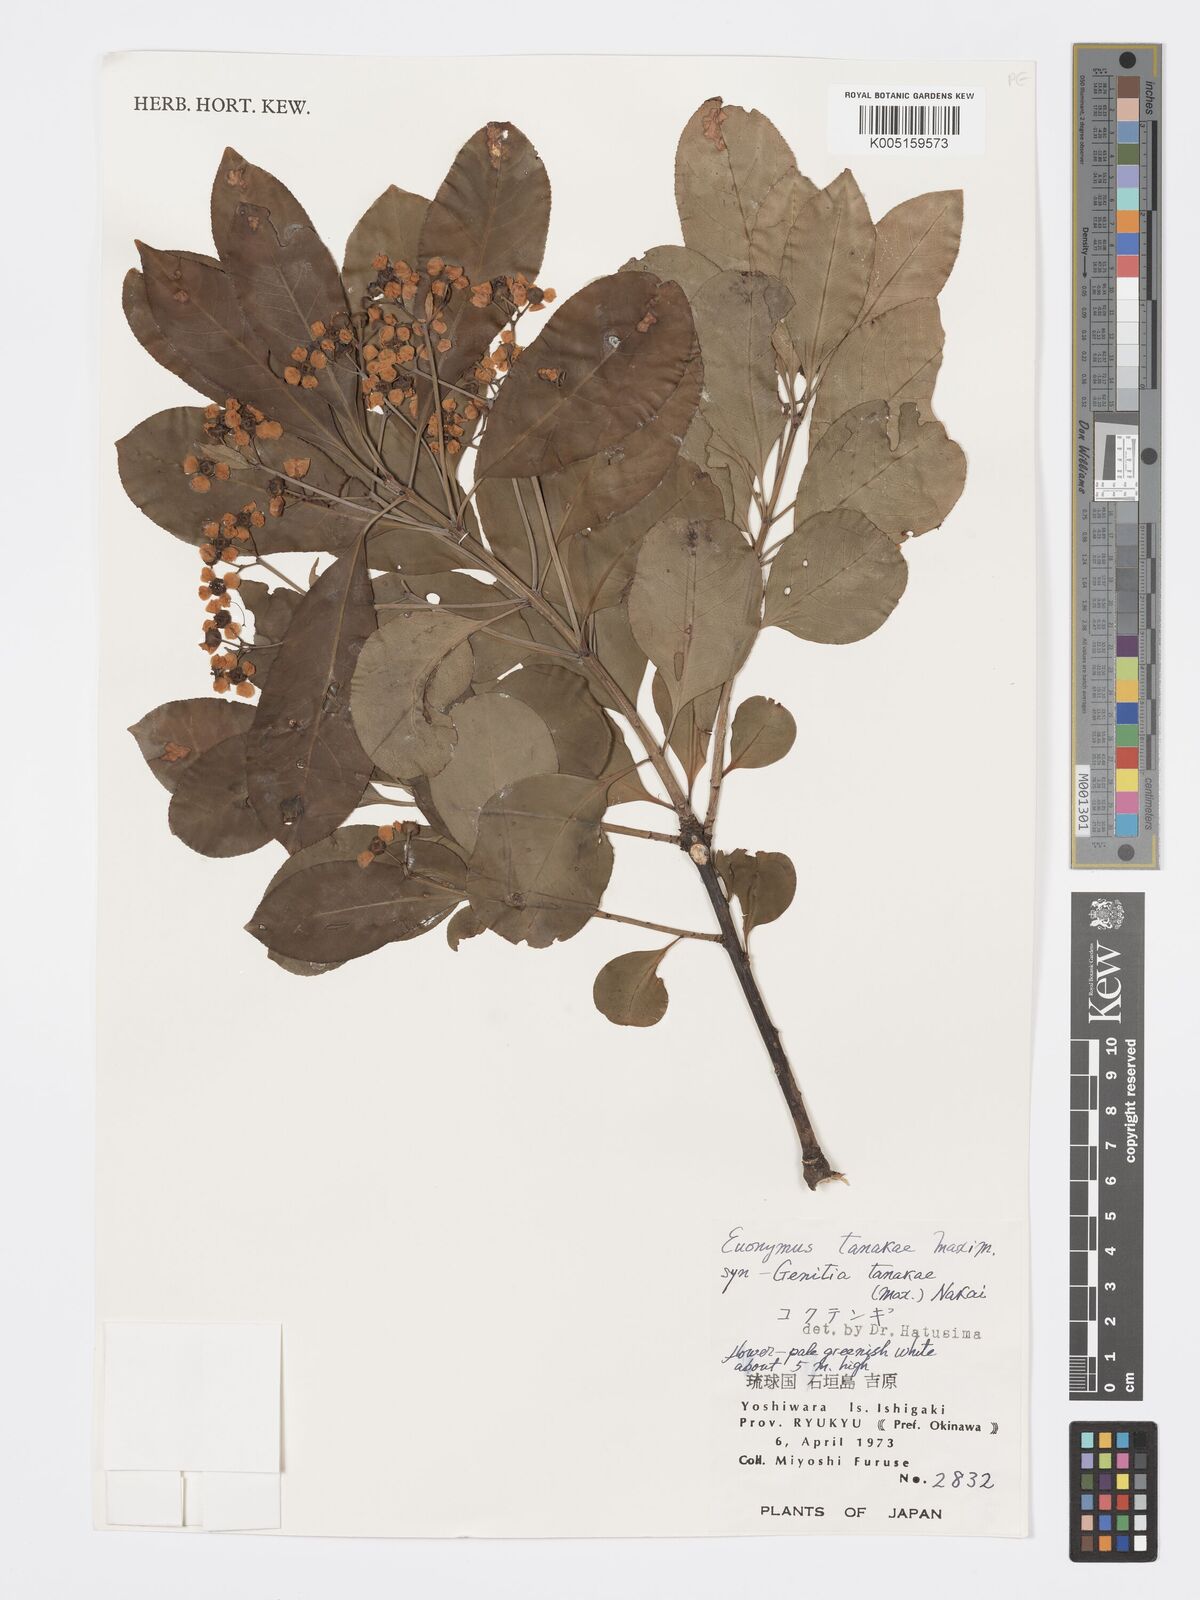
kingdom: Plantae
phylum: Tracheophyta
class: Magnoliopsida
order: Celastrales
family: Celastraceae
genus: Euonymus
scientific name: Euonymus carnosus
